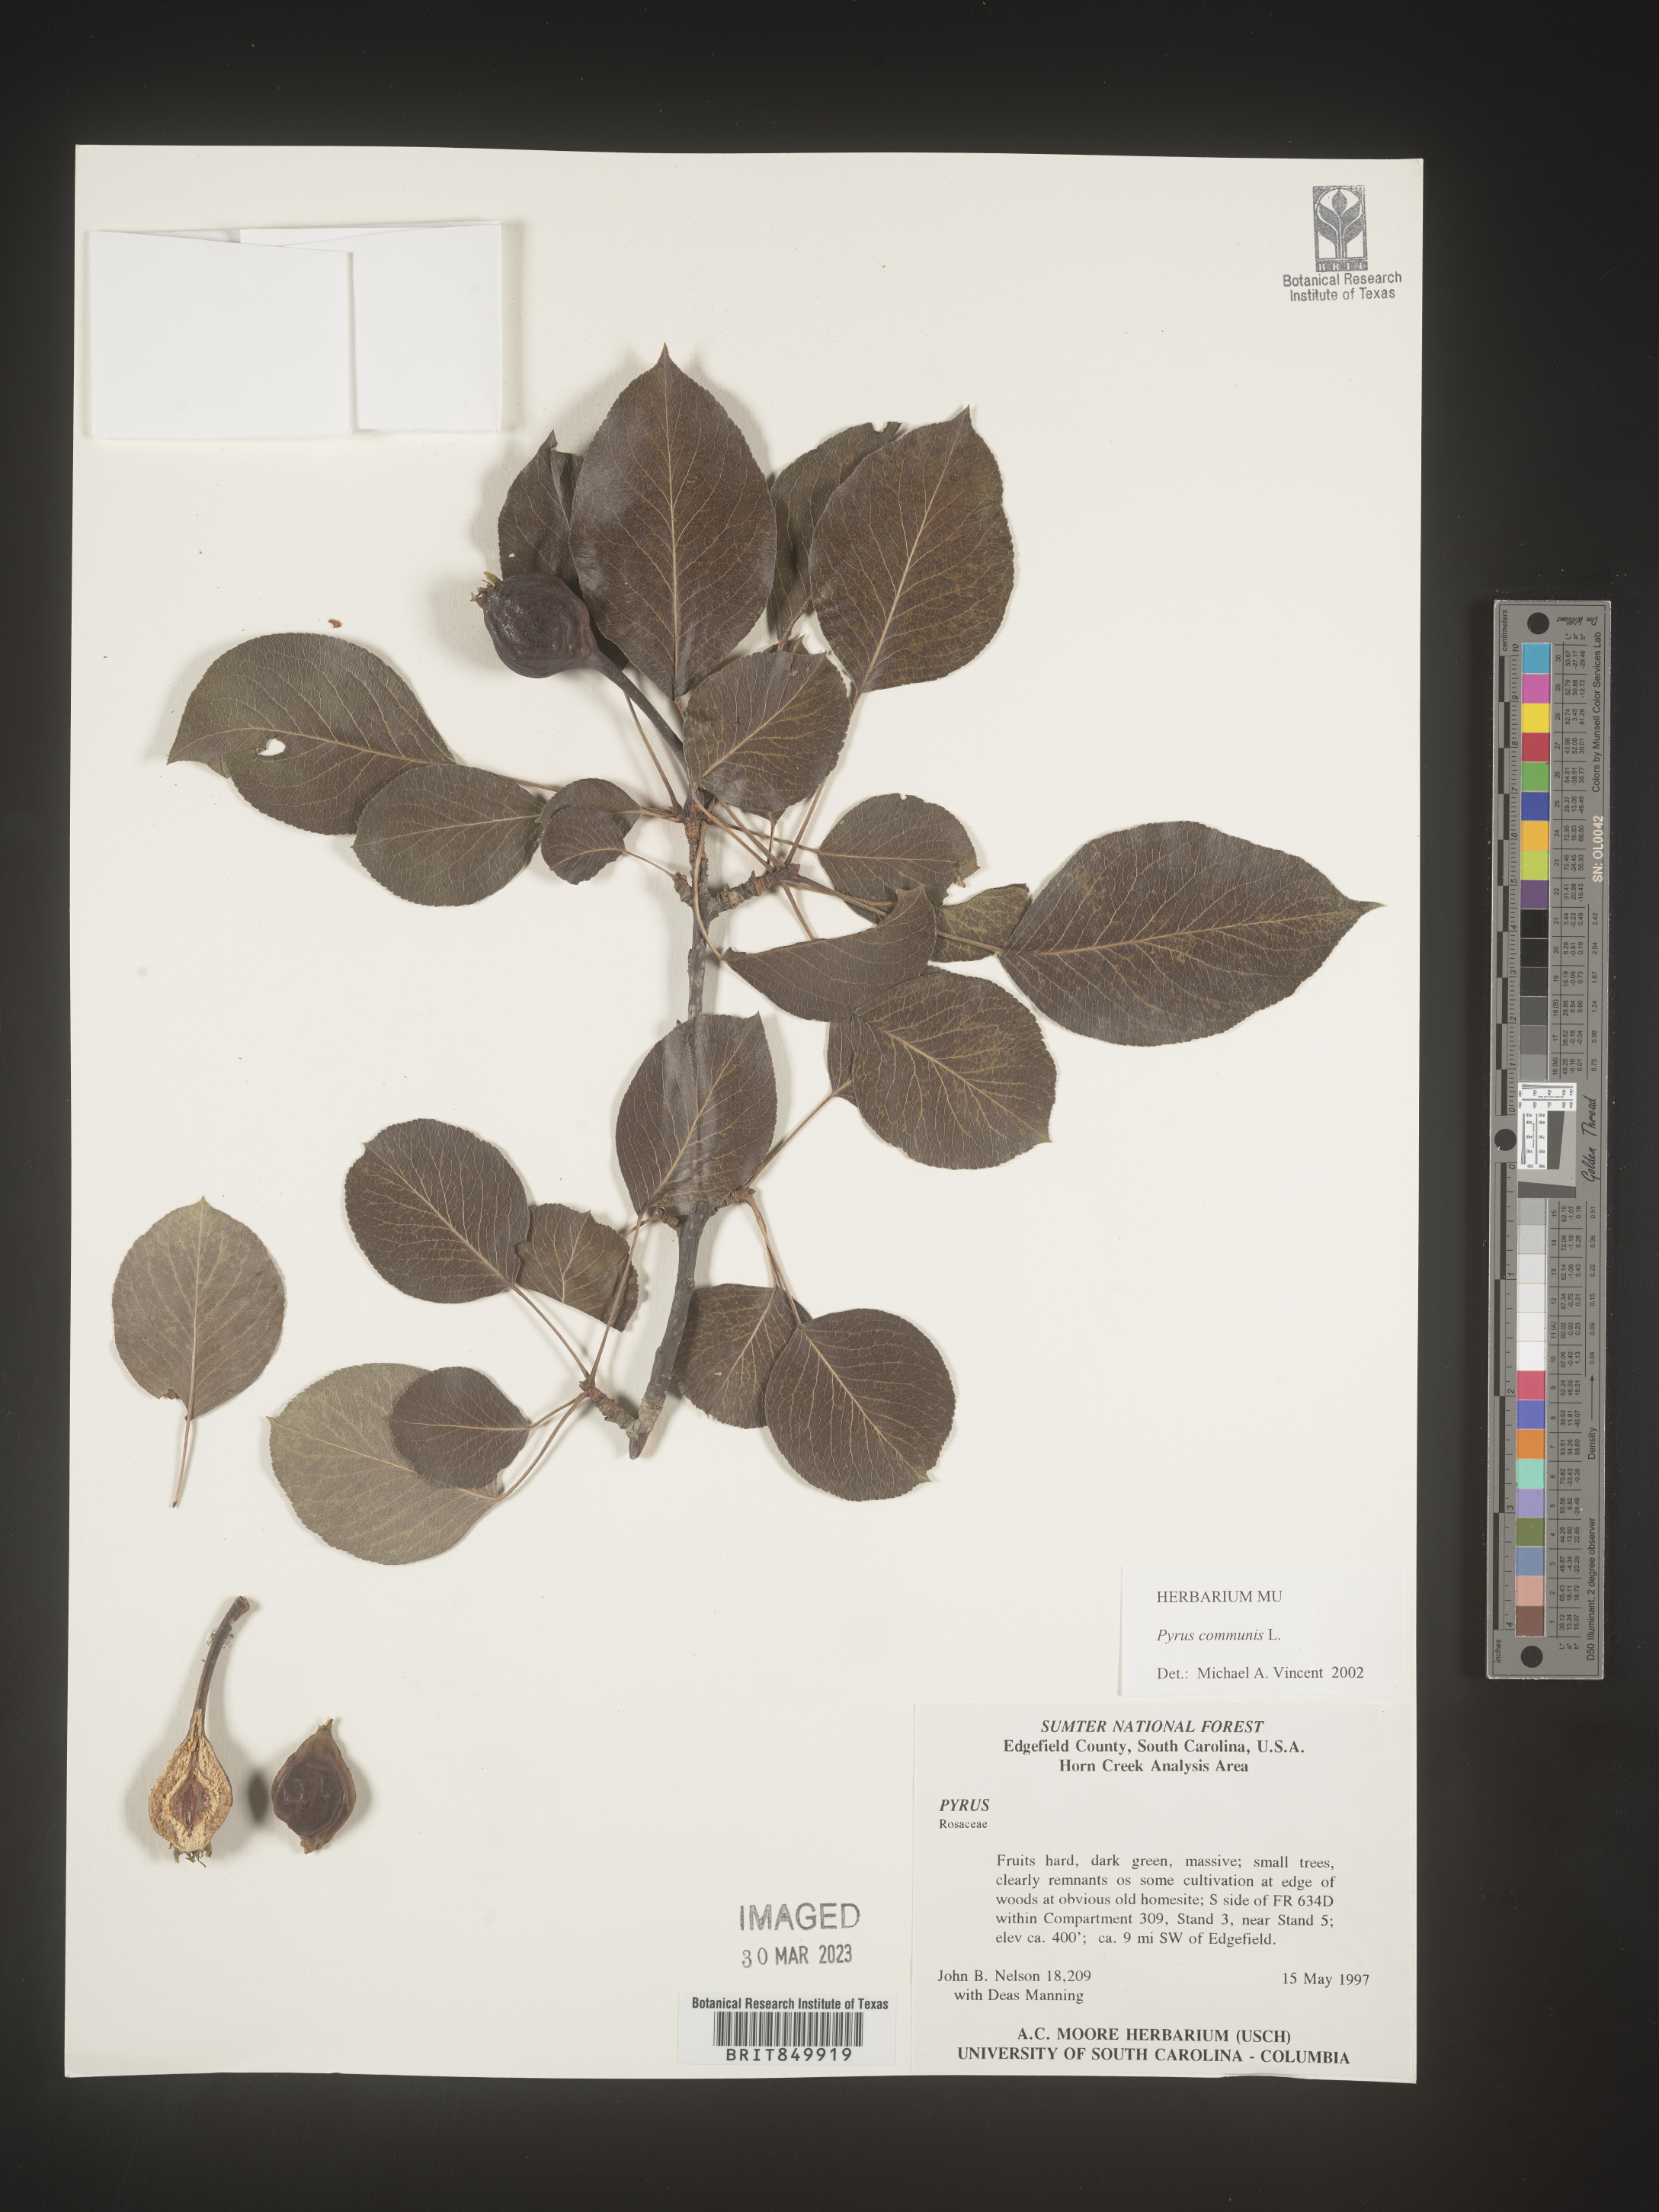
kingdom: Plantae
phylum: Tracheophyta
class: Magnoliopsida
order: Rosales
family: Rosaceae
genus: Pyrus
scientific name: Pyrus
